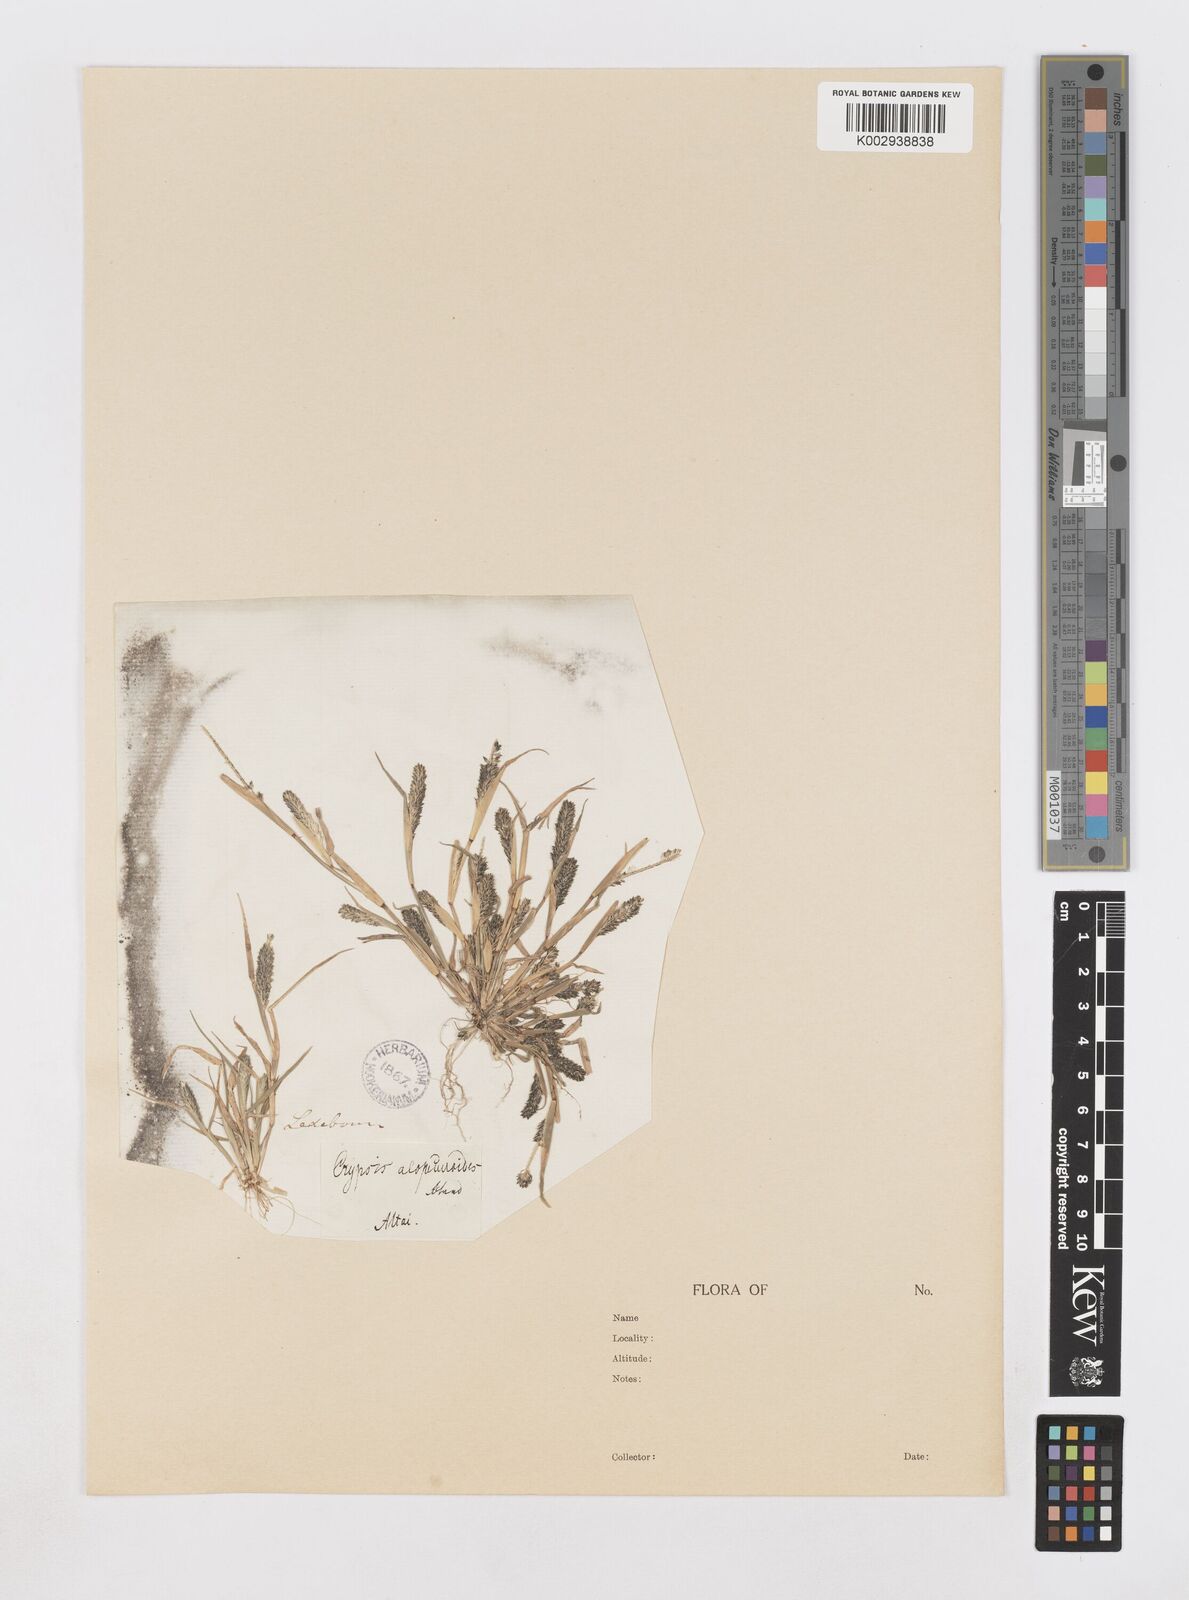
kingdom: Plantae
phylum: Tracheophyta
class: Liliopsida
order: Poales
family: Poaceae
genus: Sporobolus
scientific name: Sporobolus alopecuroides
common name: Foxtail pricklegrass
